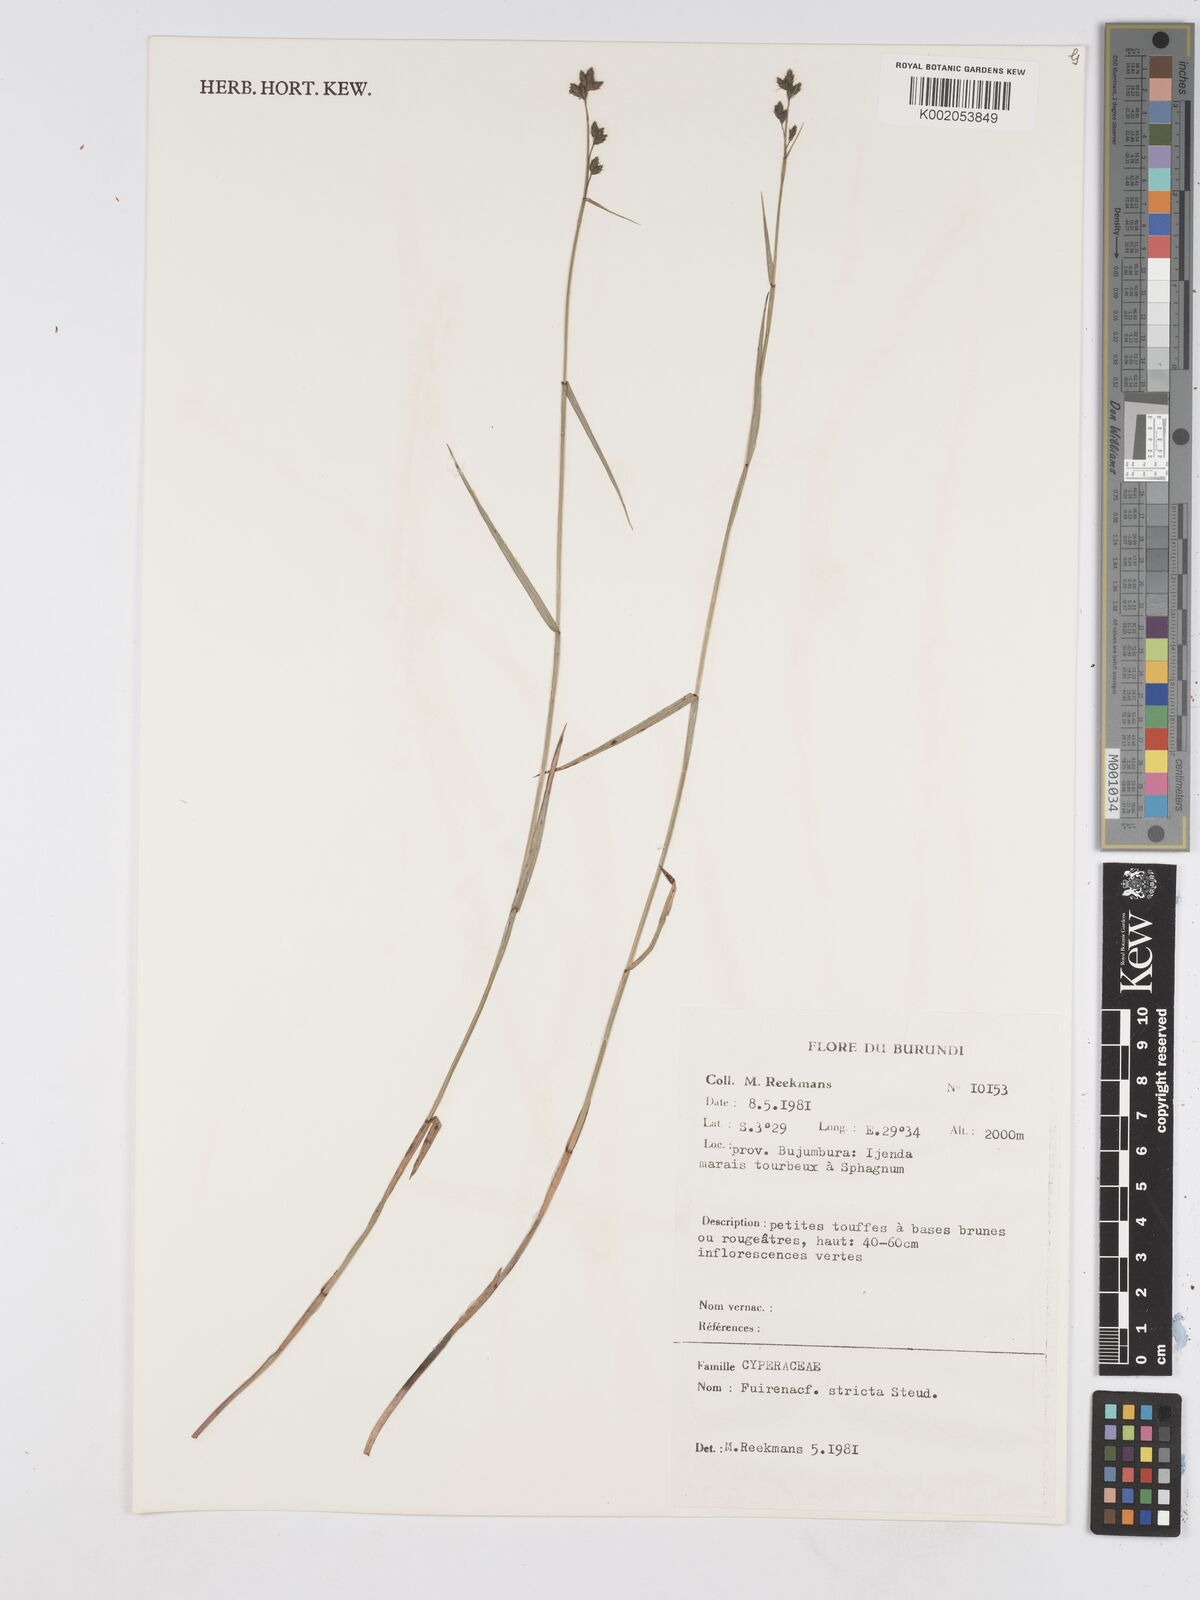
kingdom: Plantae
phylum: Tracheophyta
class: Liliopsida
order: Poales
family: Cyperaceae
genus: Fuirena
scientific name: Fuirena stricta
